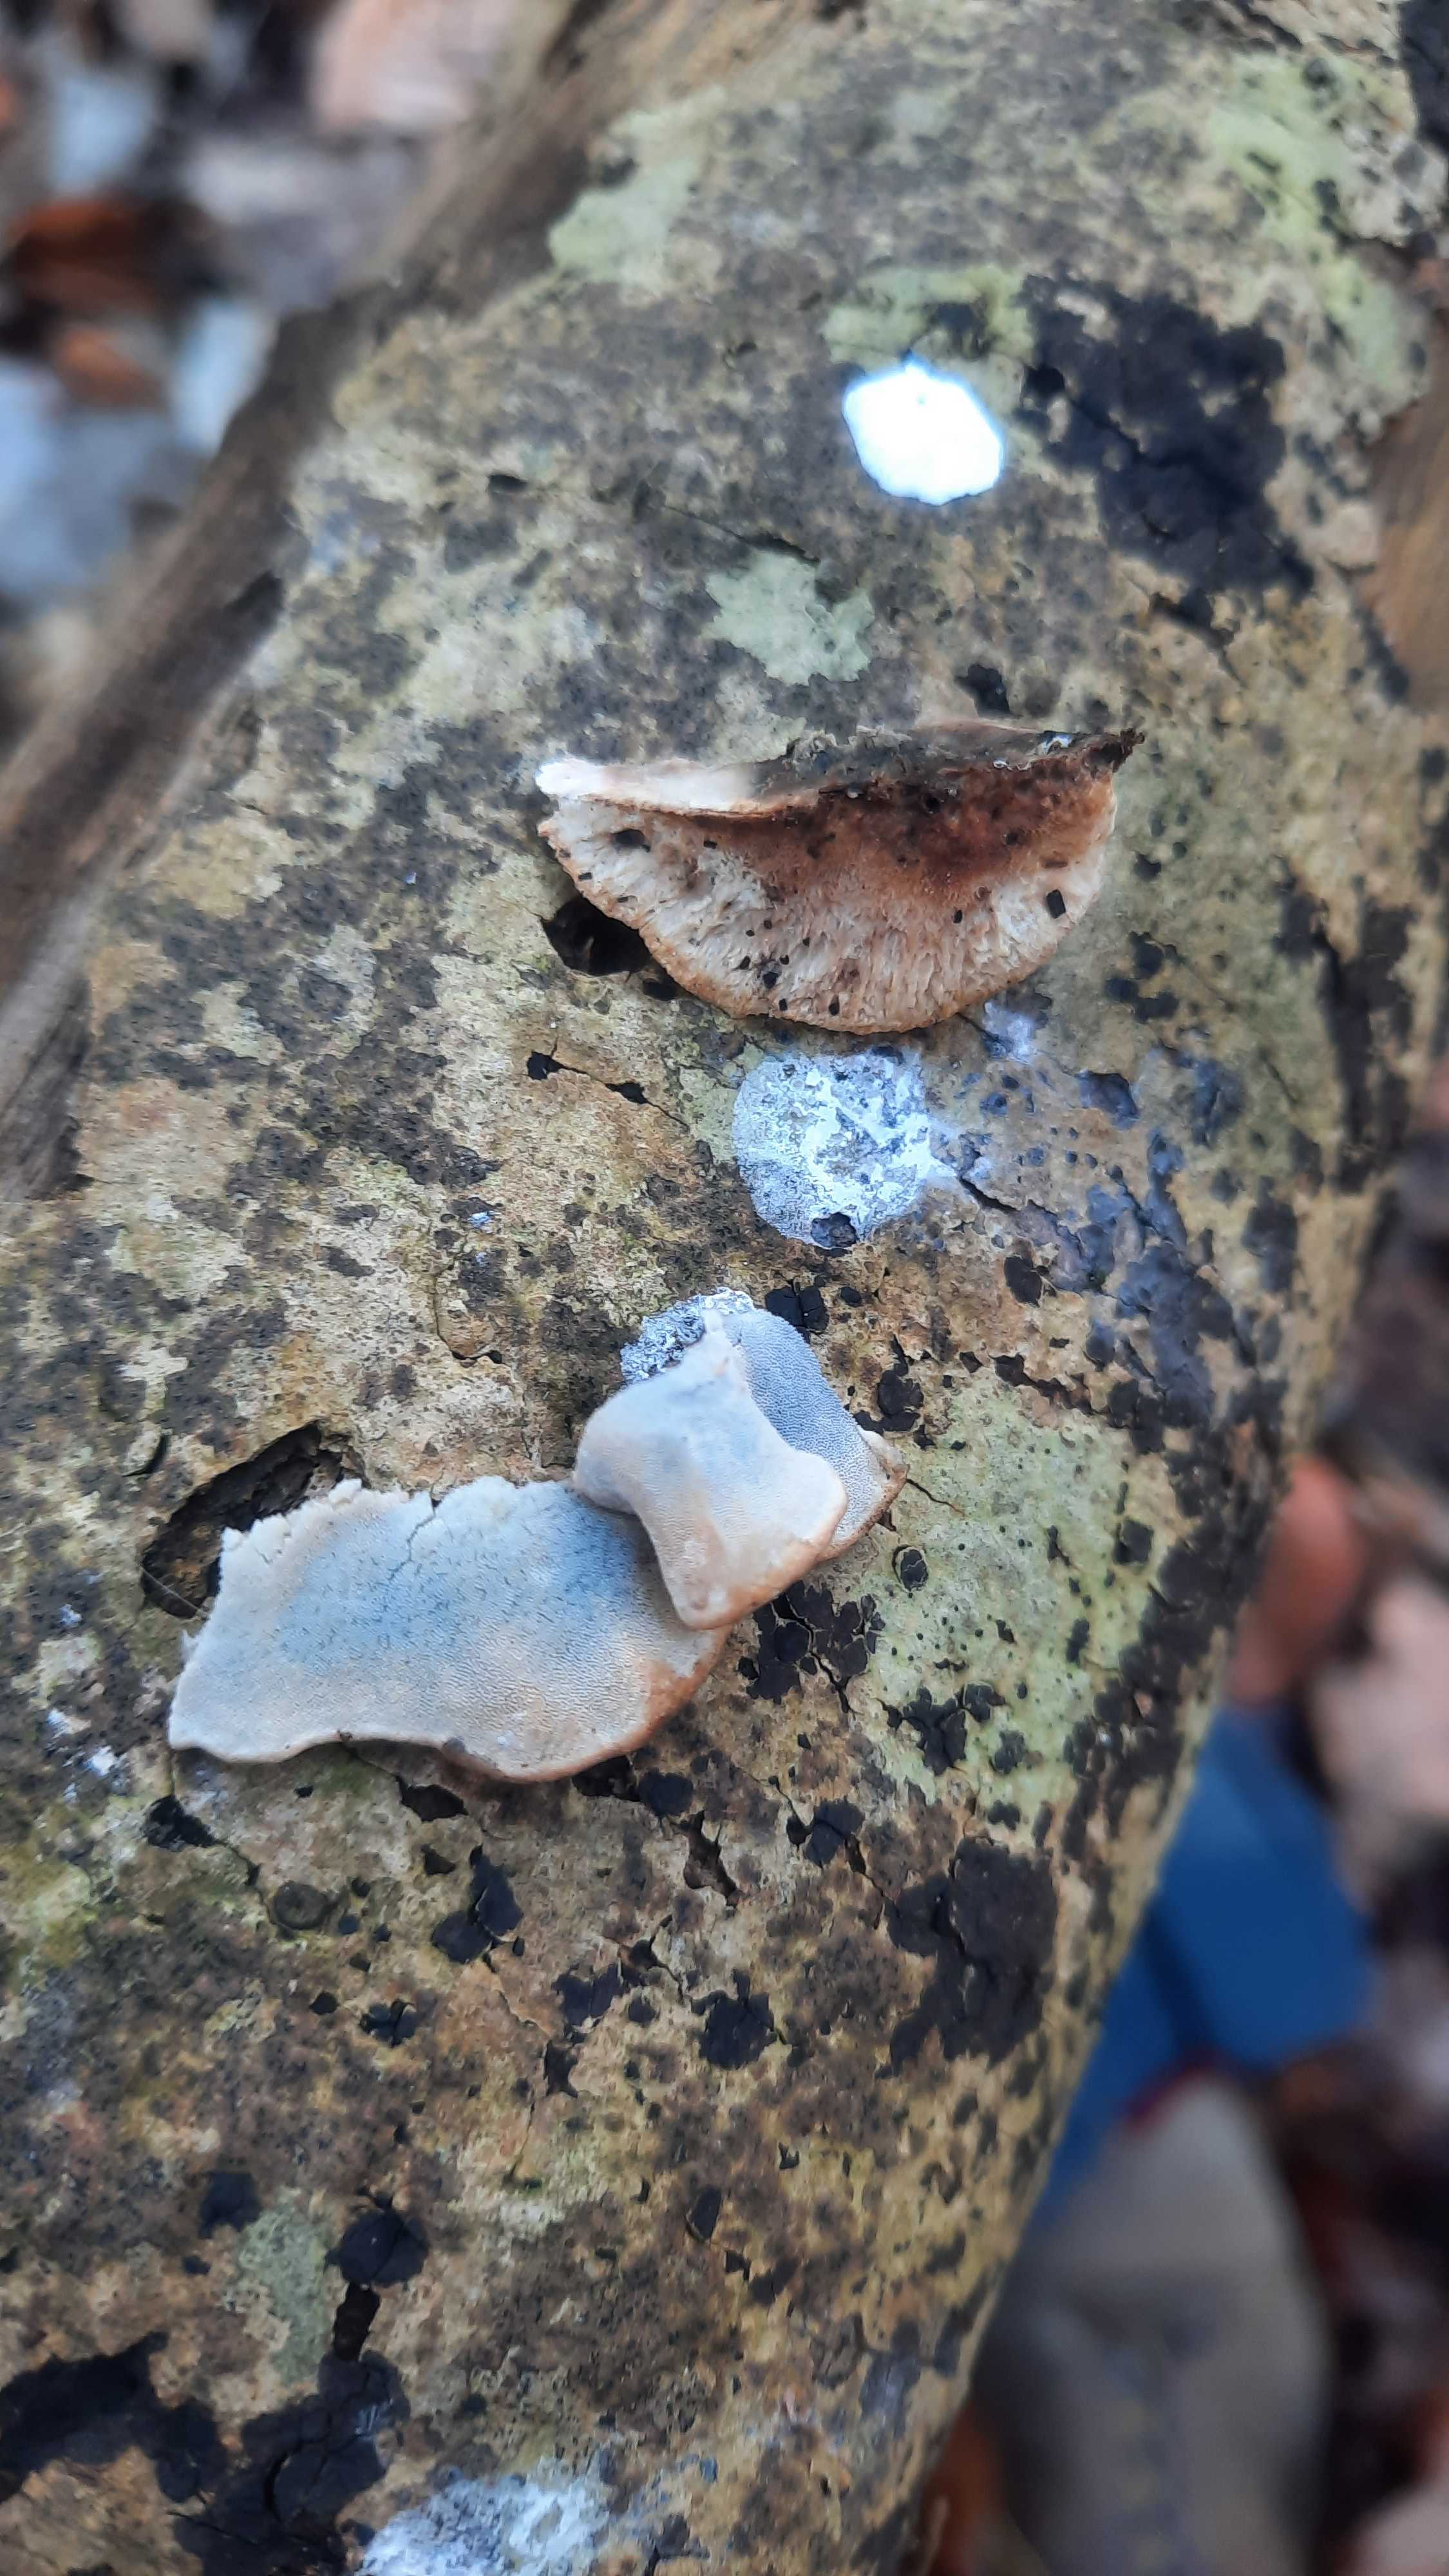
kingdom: Fungi
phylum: Basidiomycota
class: Agaricomycetes
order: Polyporales
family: Incrustoporiaceae
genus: Skeletocutis
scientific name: Skeletocutis nemoralis
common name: stor krystalporesvamp
